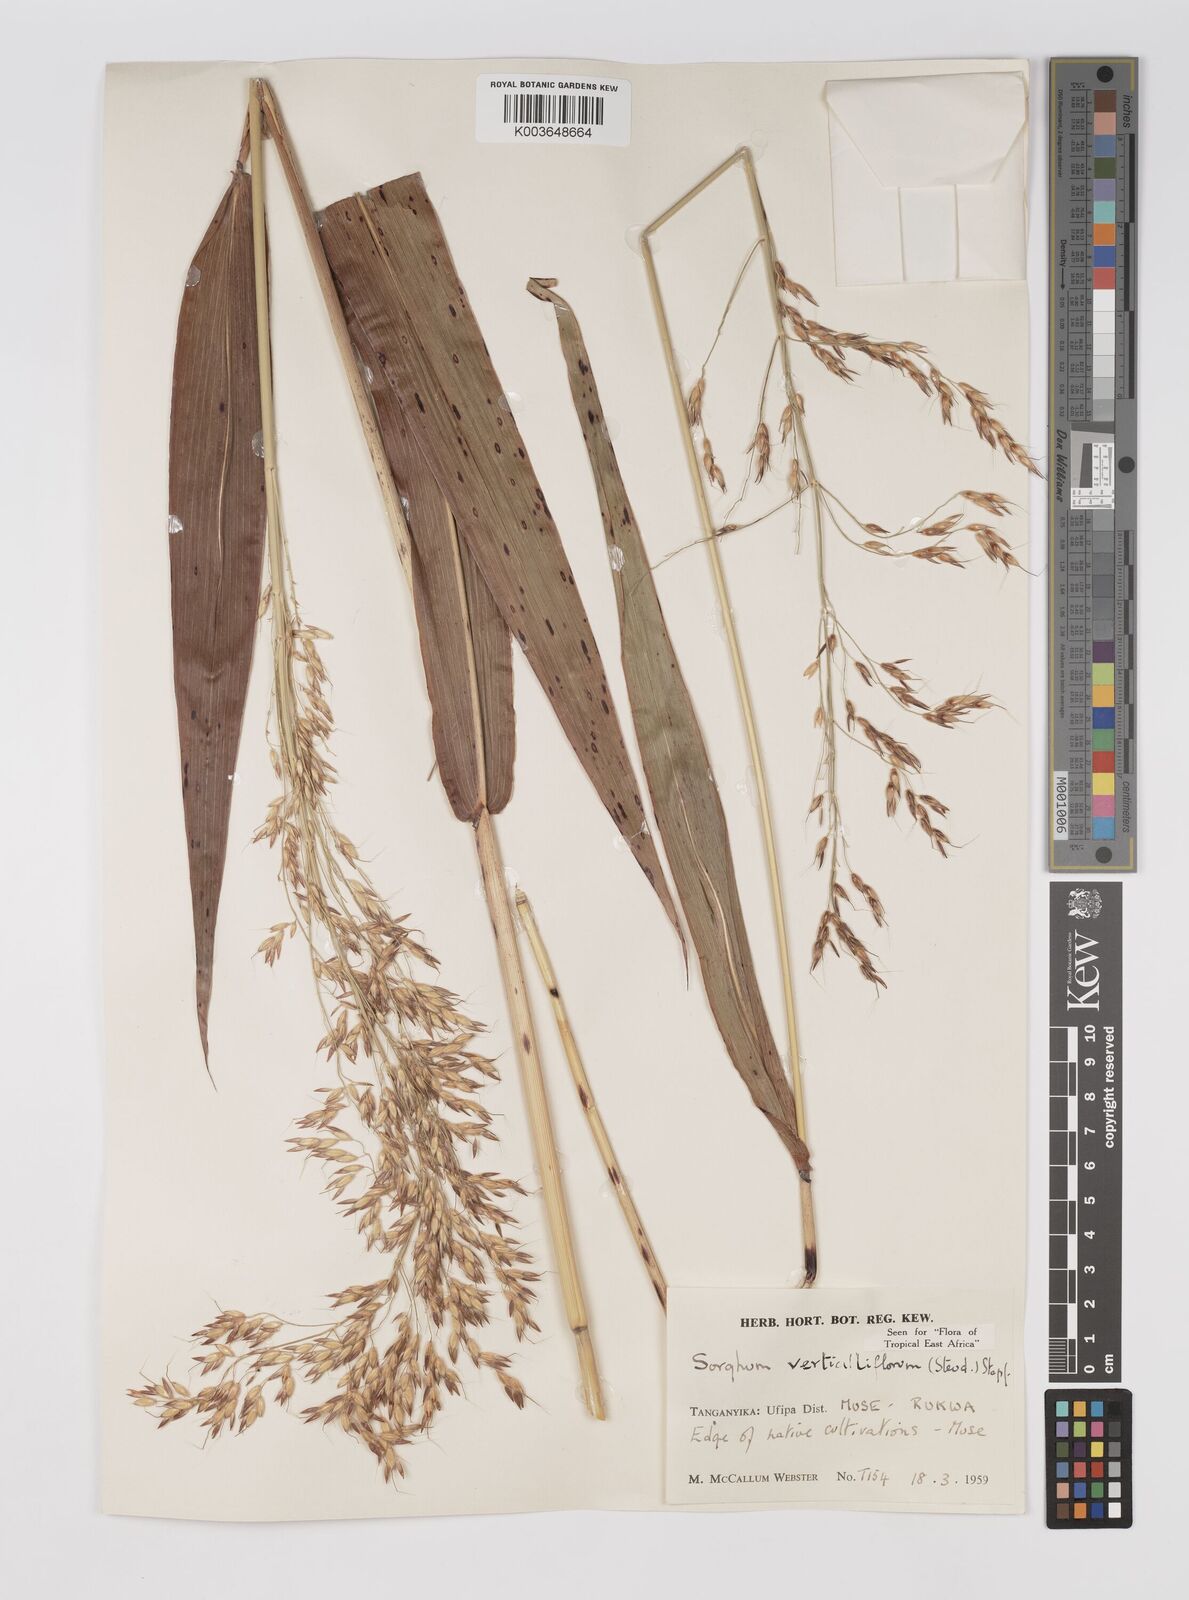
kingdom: Plantae
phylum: Tracheophyta
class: Liliopsida
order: Poales
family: Poaceae
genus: Sorghum
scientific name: Sorghum arundinaceum
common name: Sorghum
